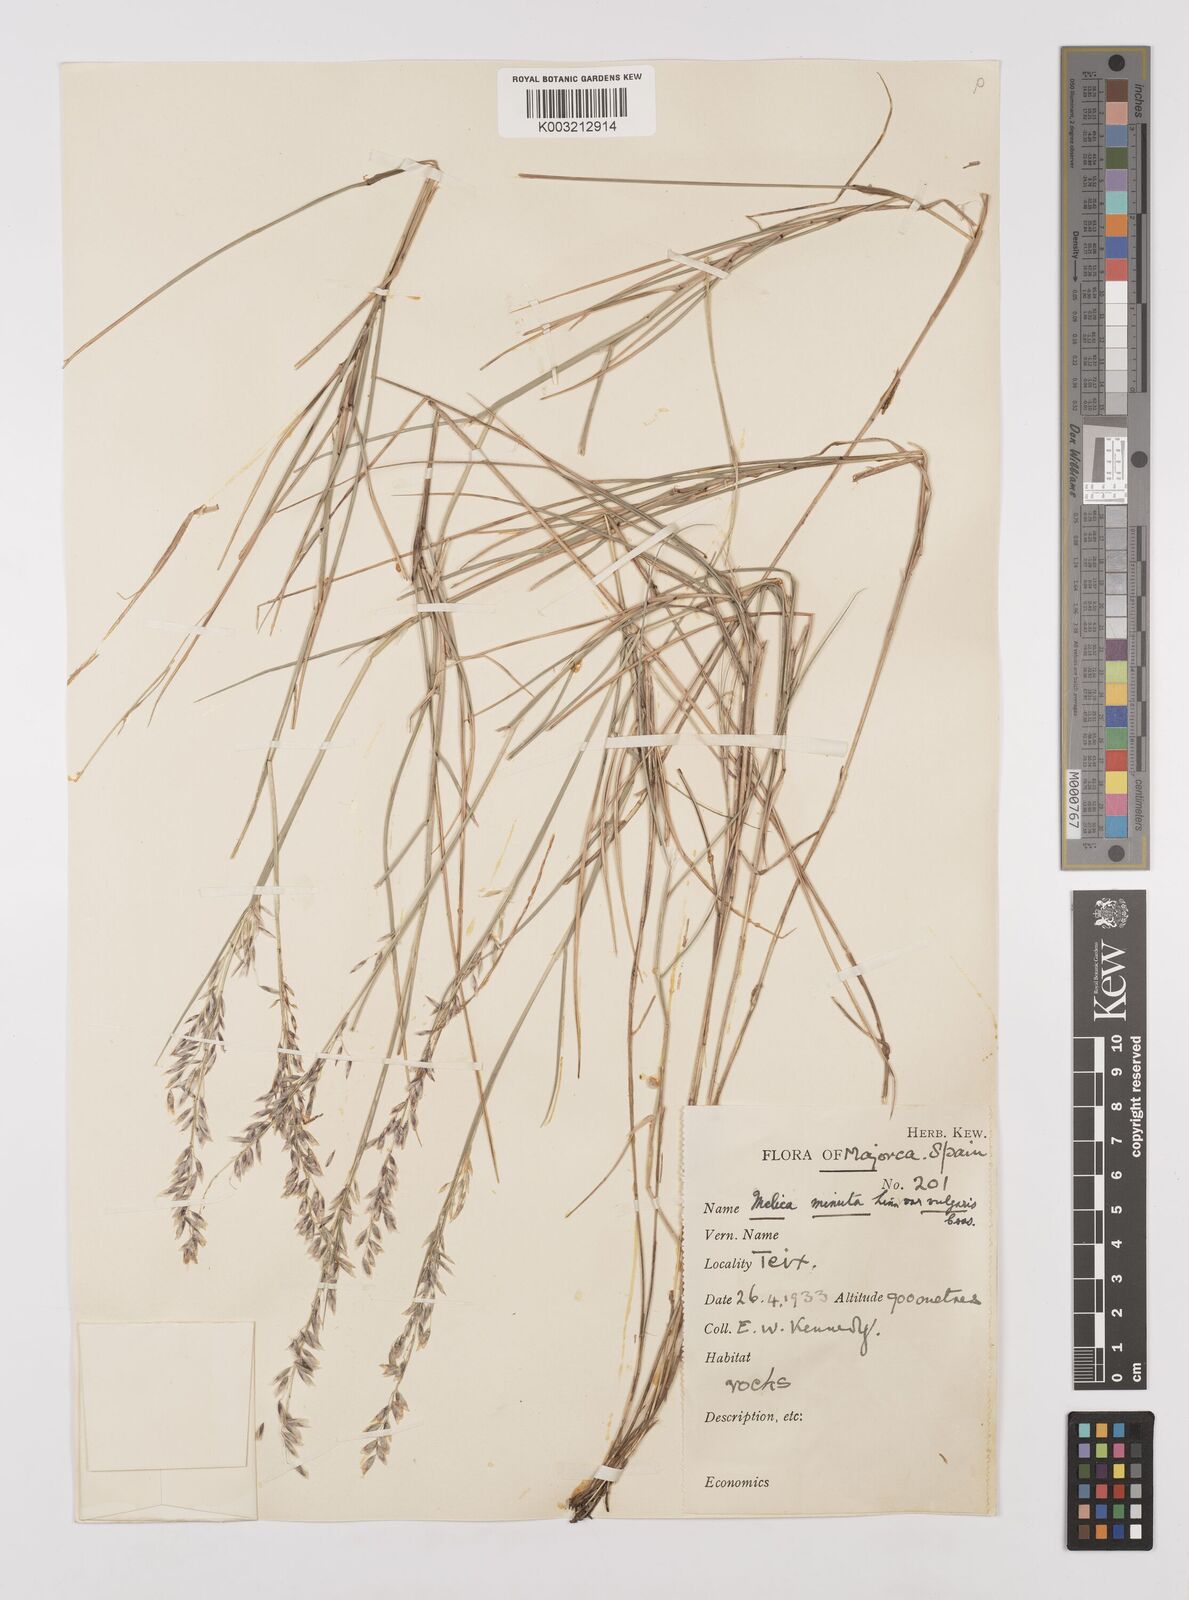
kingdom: Plantae
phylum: Tracheophyta
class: Liliopsida
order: Poales
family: Poaceae
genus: Melica
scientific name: Melica minuta
